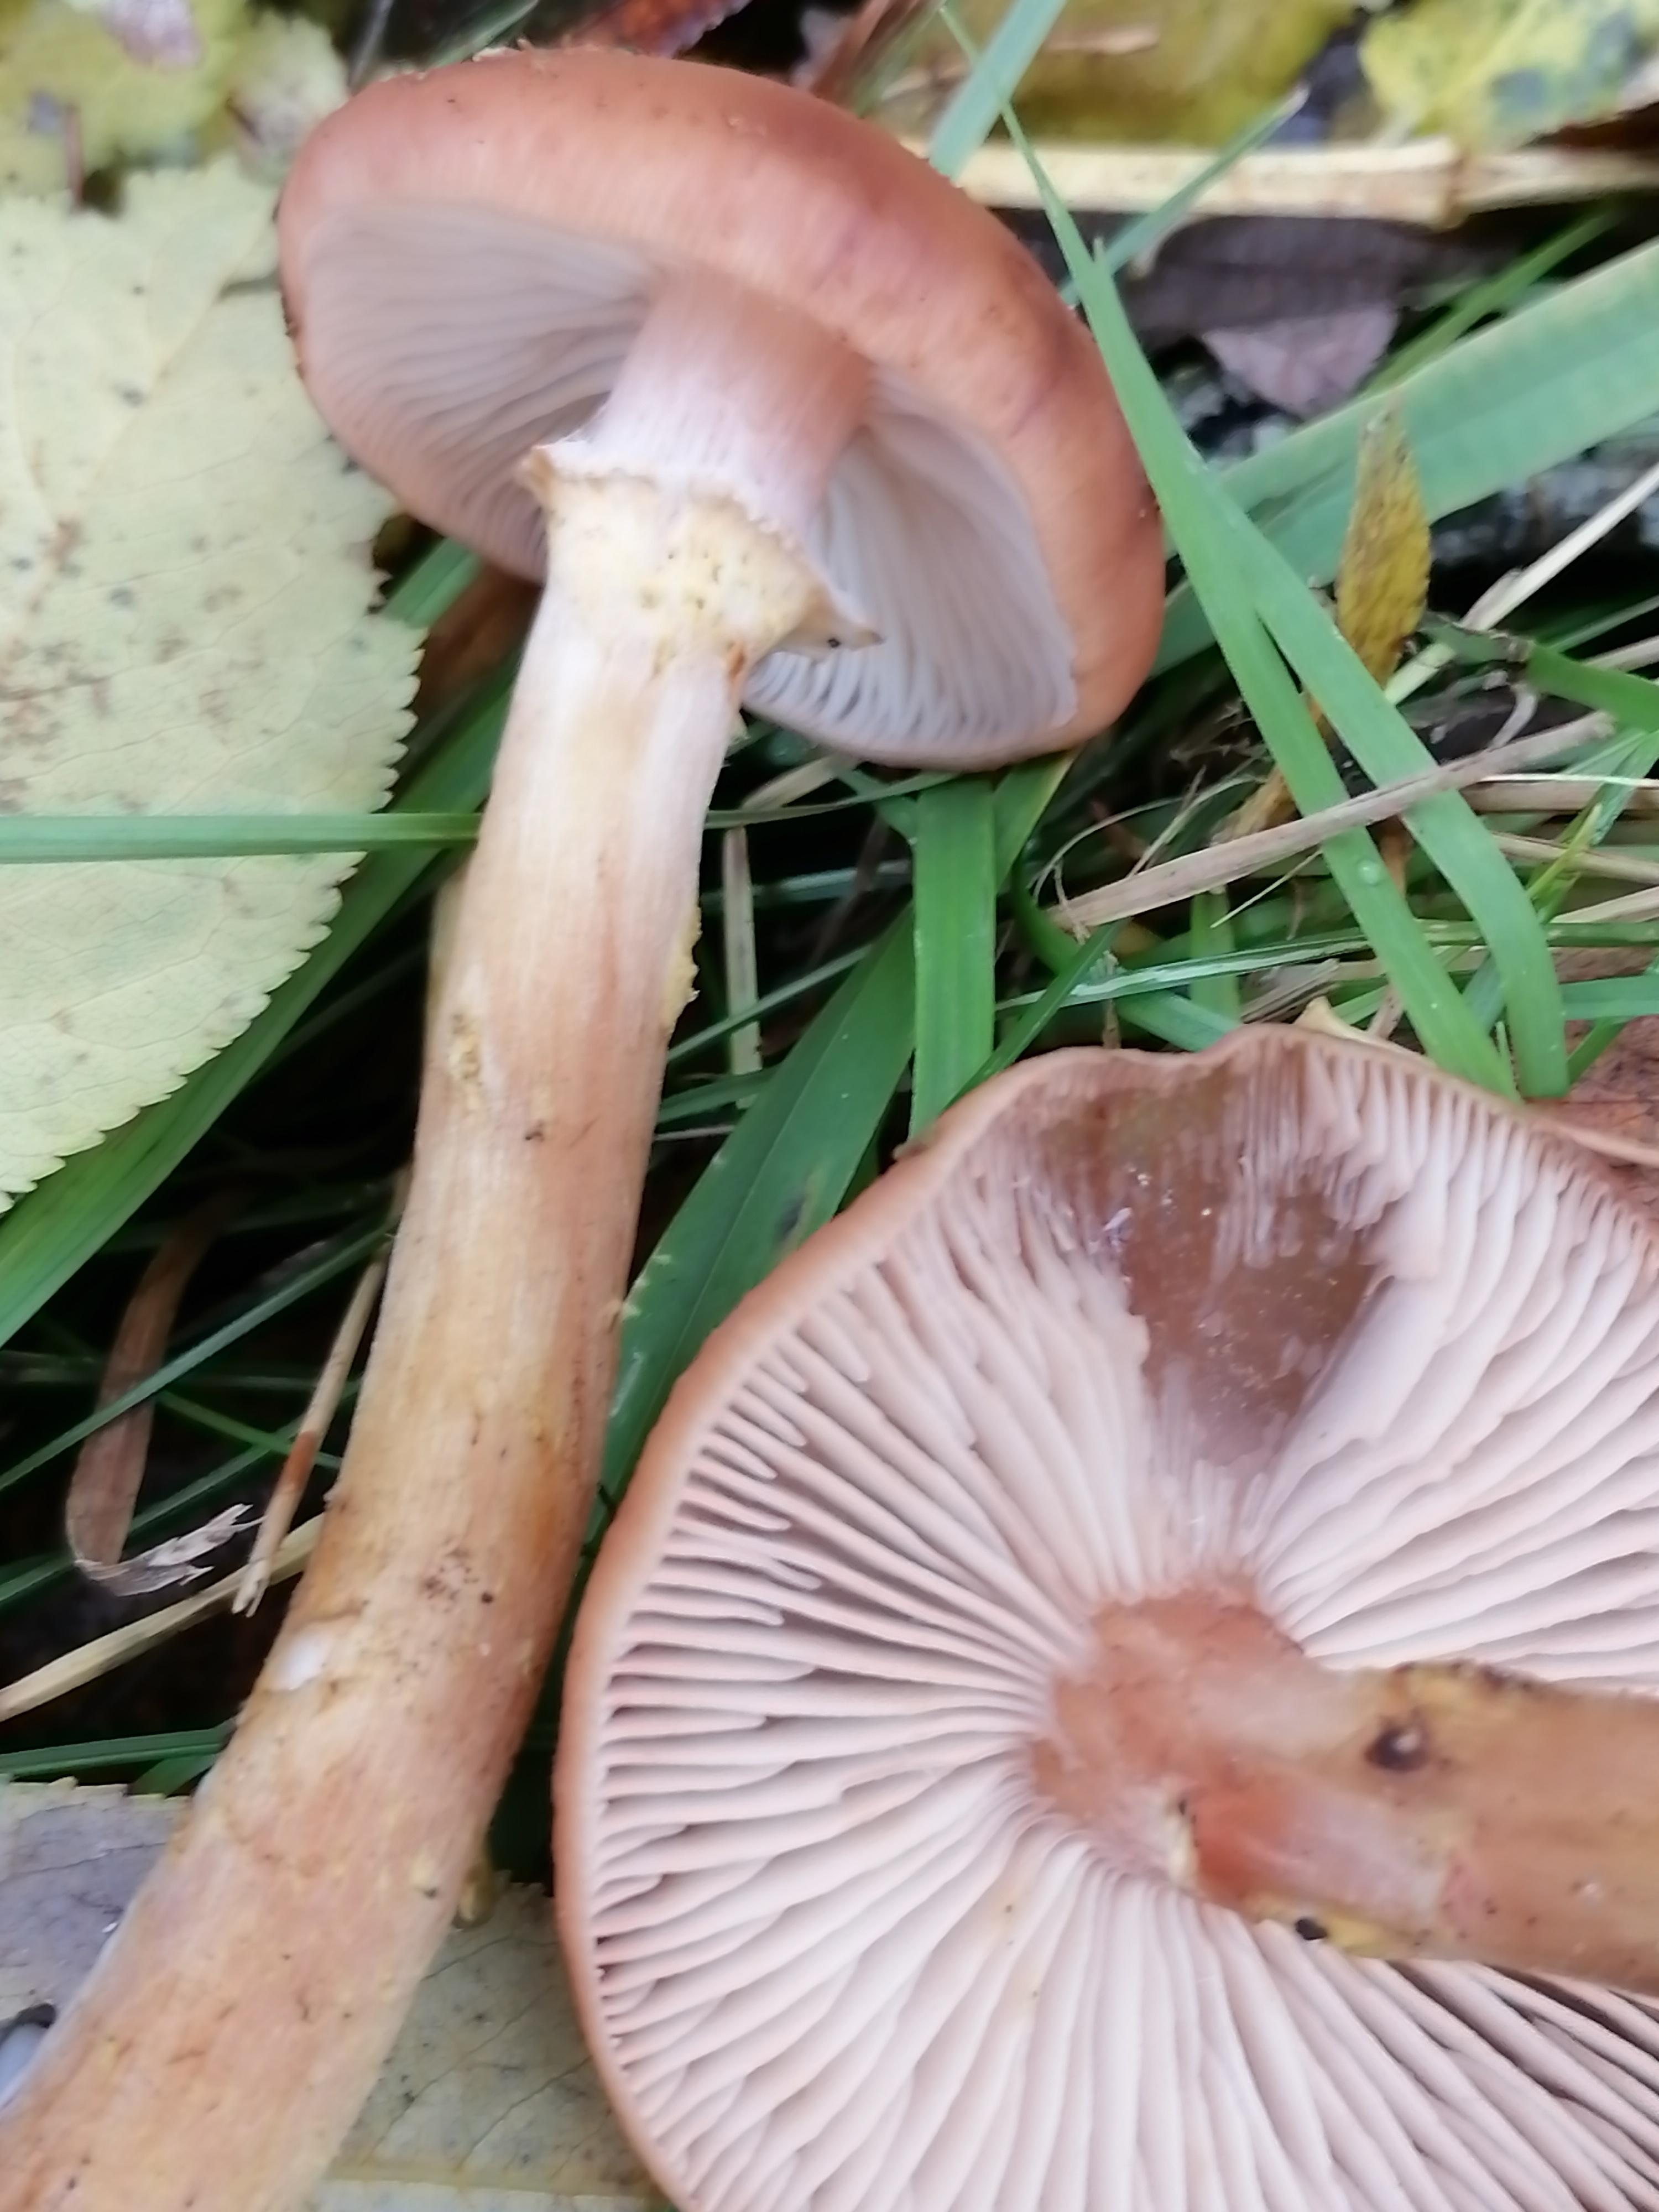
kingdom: Fungi
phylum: Basidiomycota
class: Agaricomycetes
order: Agaricales
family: Physalacriaceae
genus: Armillaria
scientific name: Armillaria
